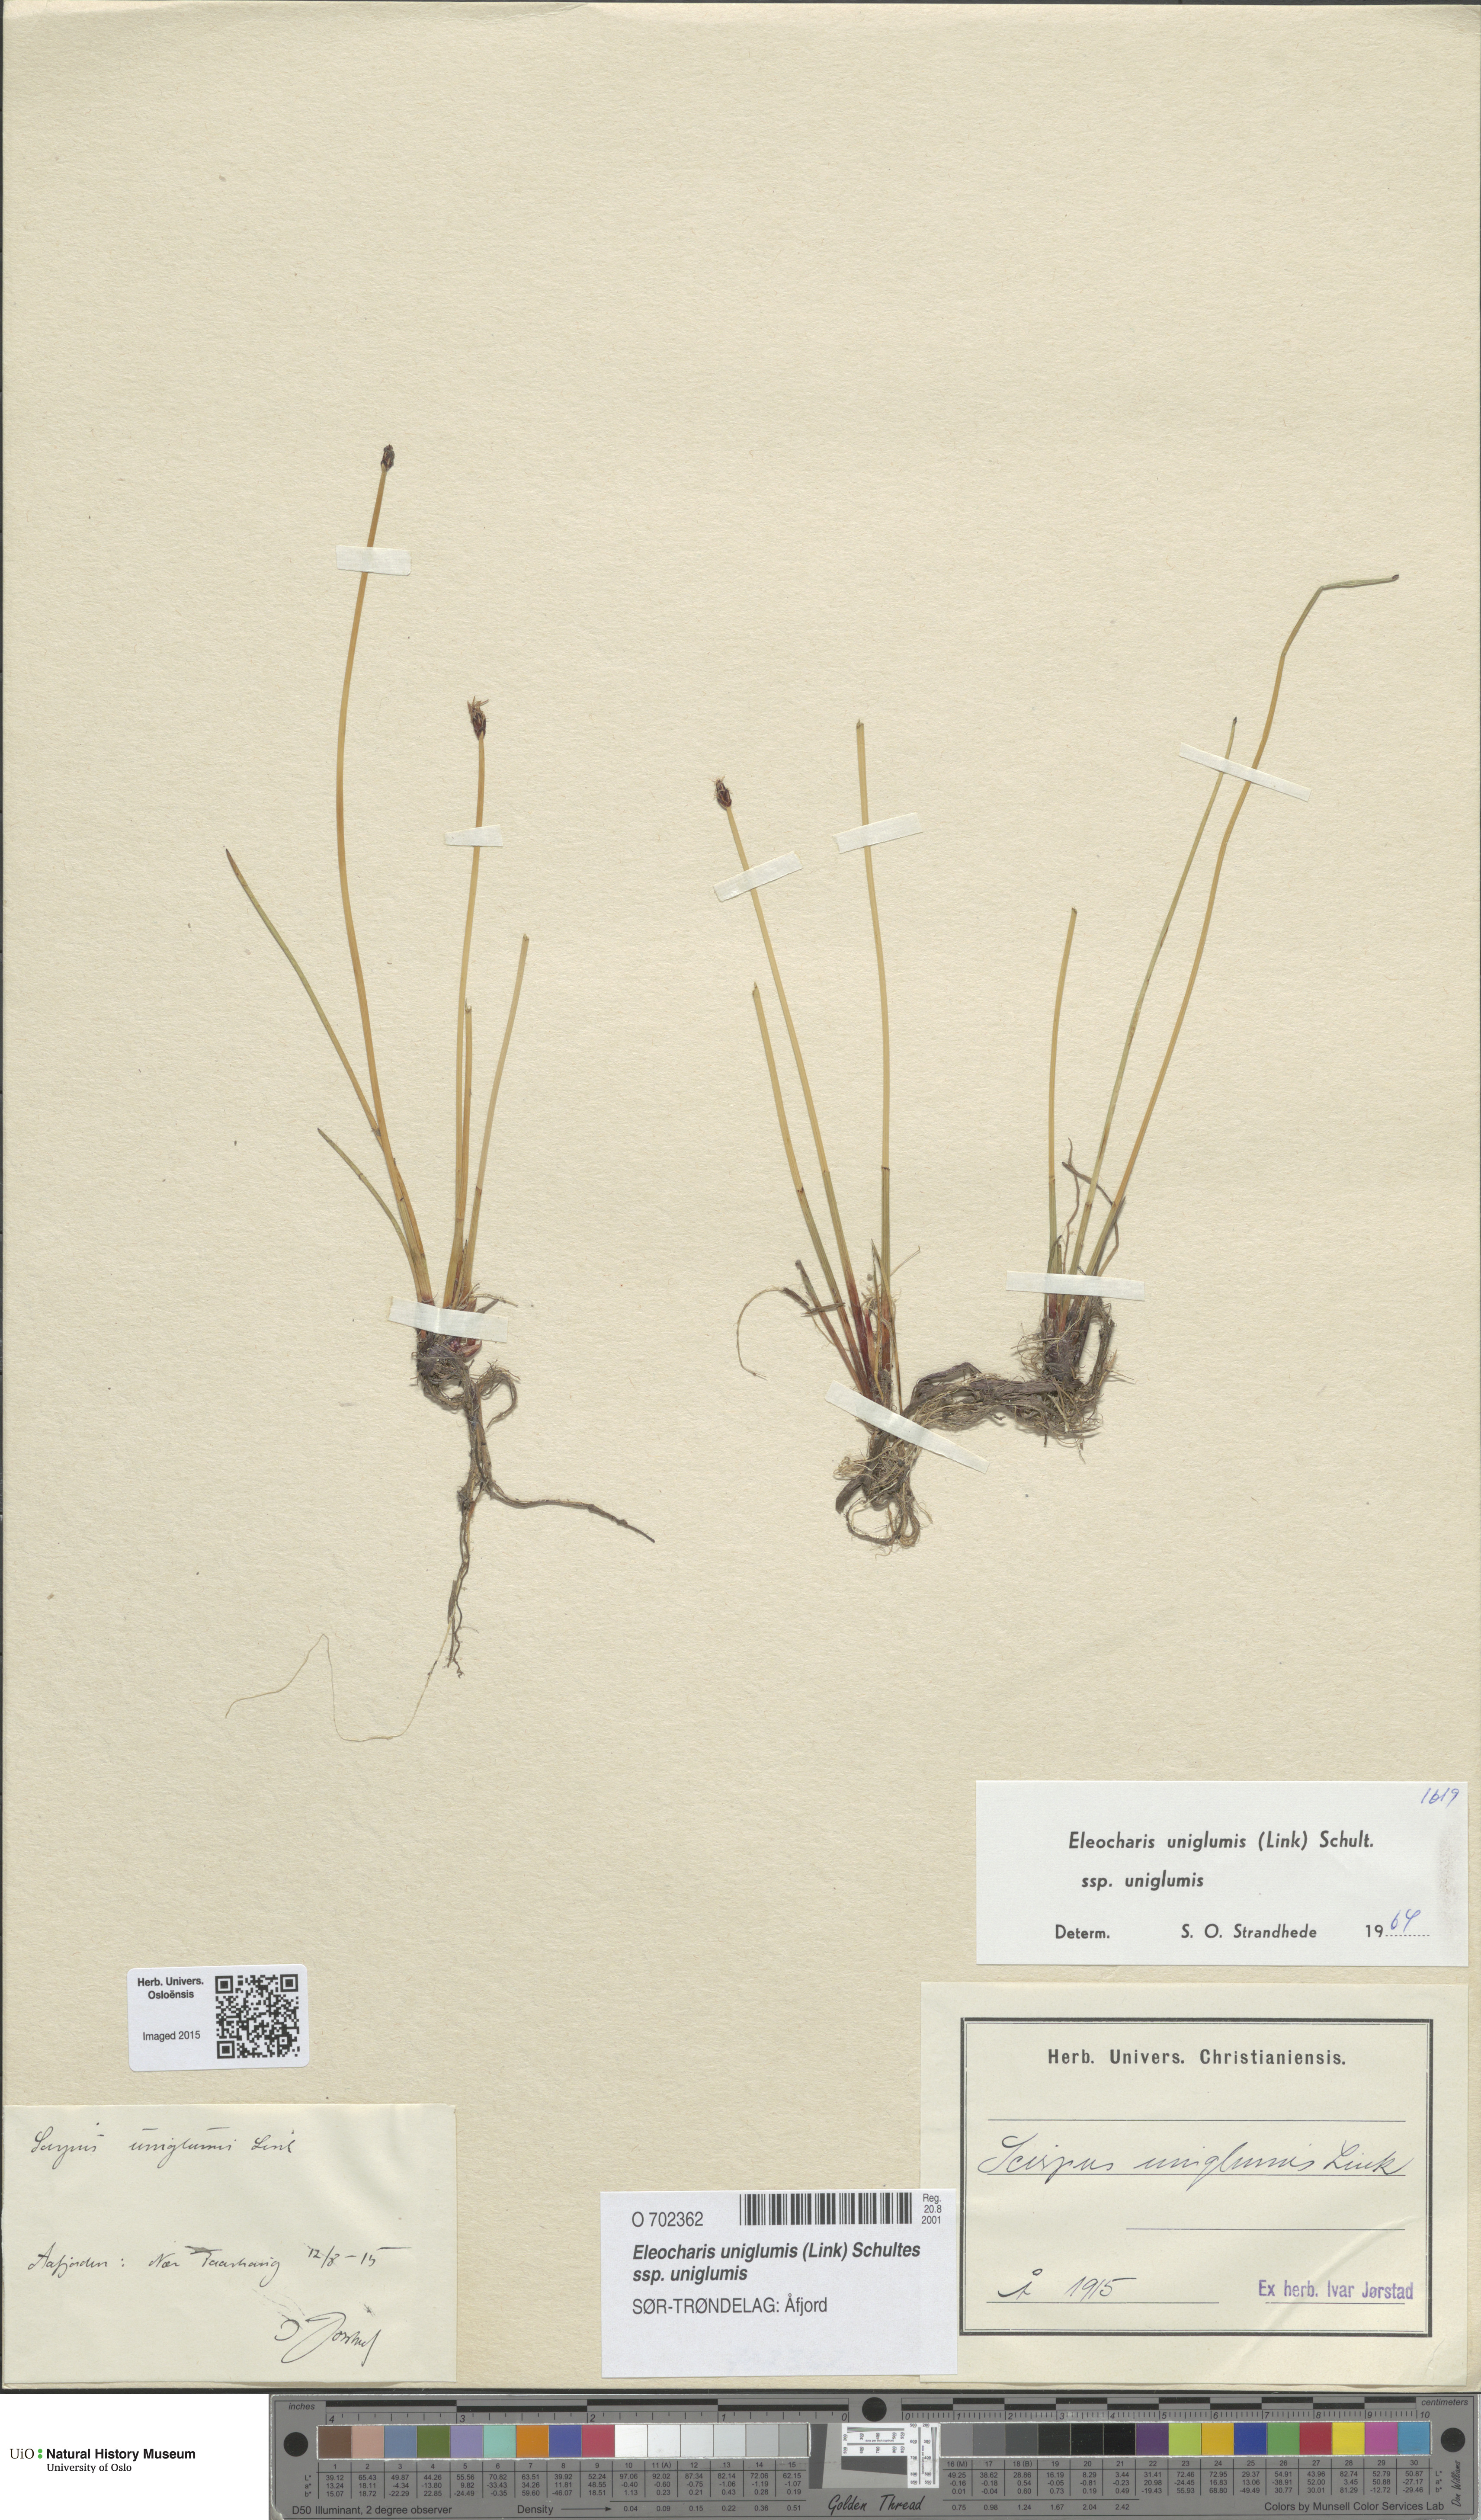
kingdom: Plantae
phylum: Tracheophyta
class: Liliopsida
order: Poales
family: Cyperaceae
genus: Eleocharis
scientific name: Eleocharis uniglumis
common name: Slender spike-rush
